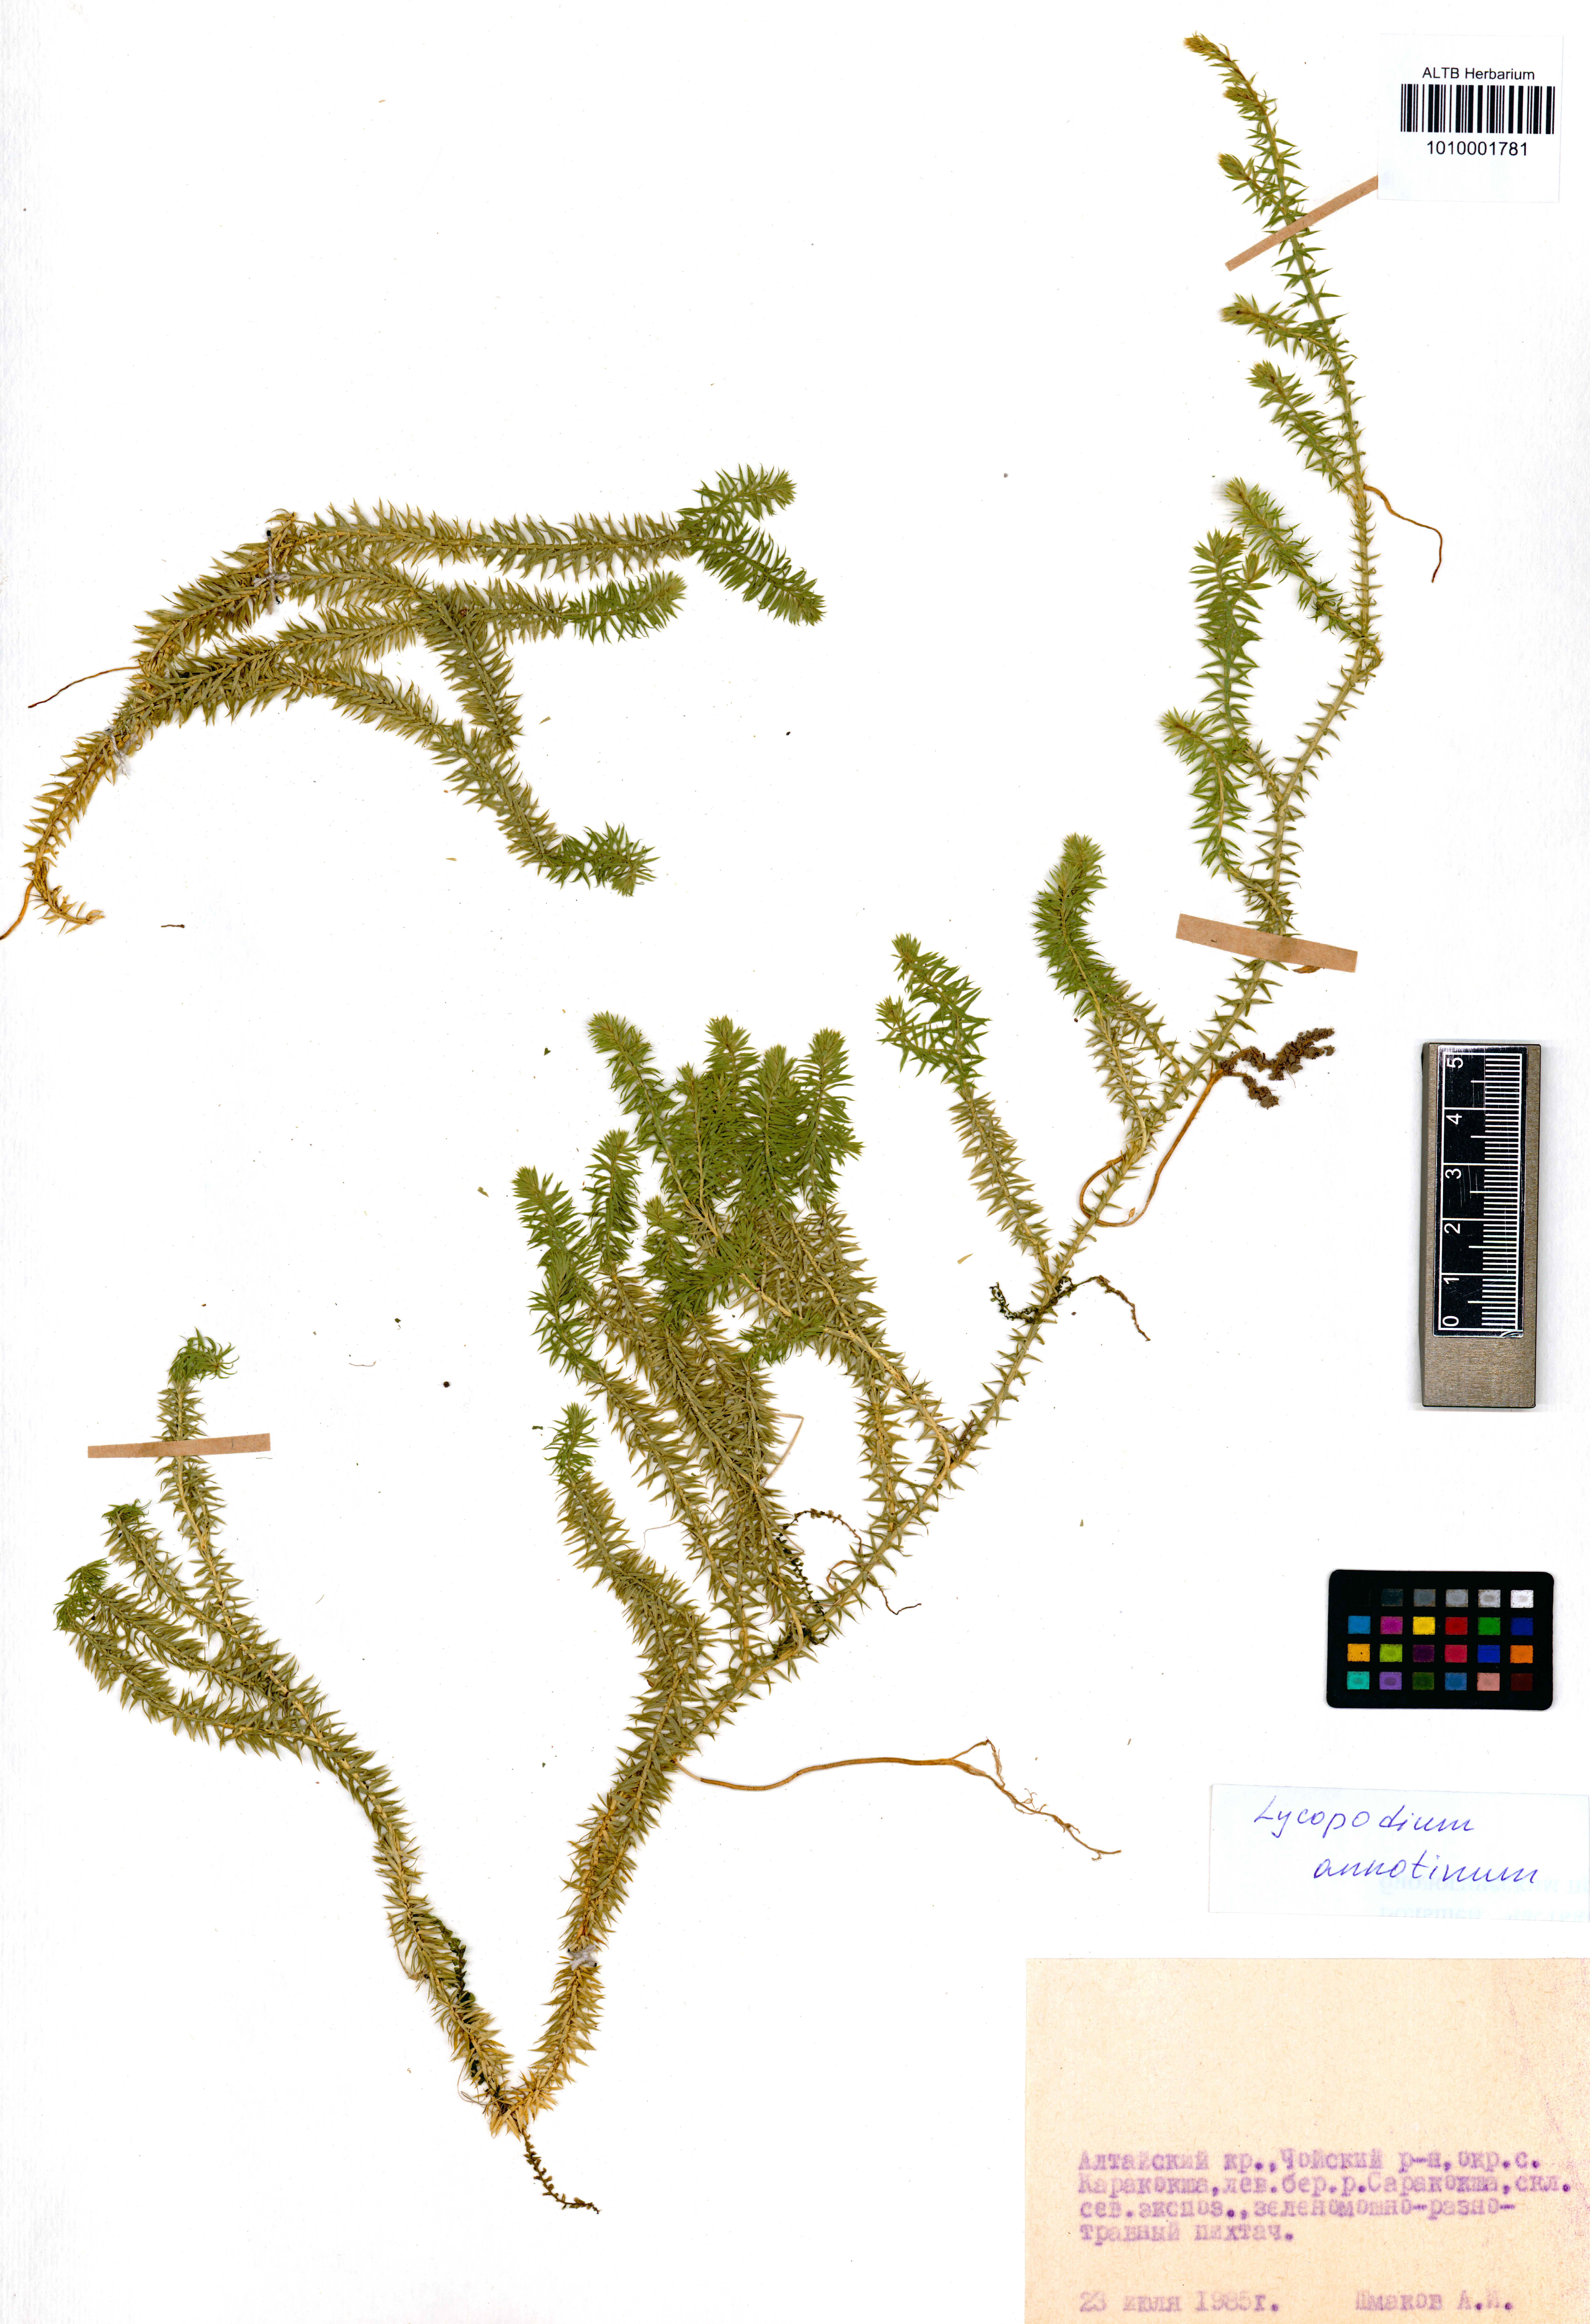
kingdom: Plantae
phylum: Tracheophyta
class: Lycopodiopsida
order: Lycopodiales
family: Lycopodiaceae
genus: Spinulum
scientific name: Spinulum annotinum
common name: Interrupted club-moss
